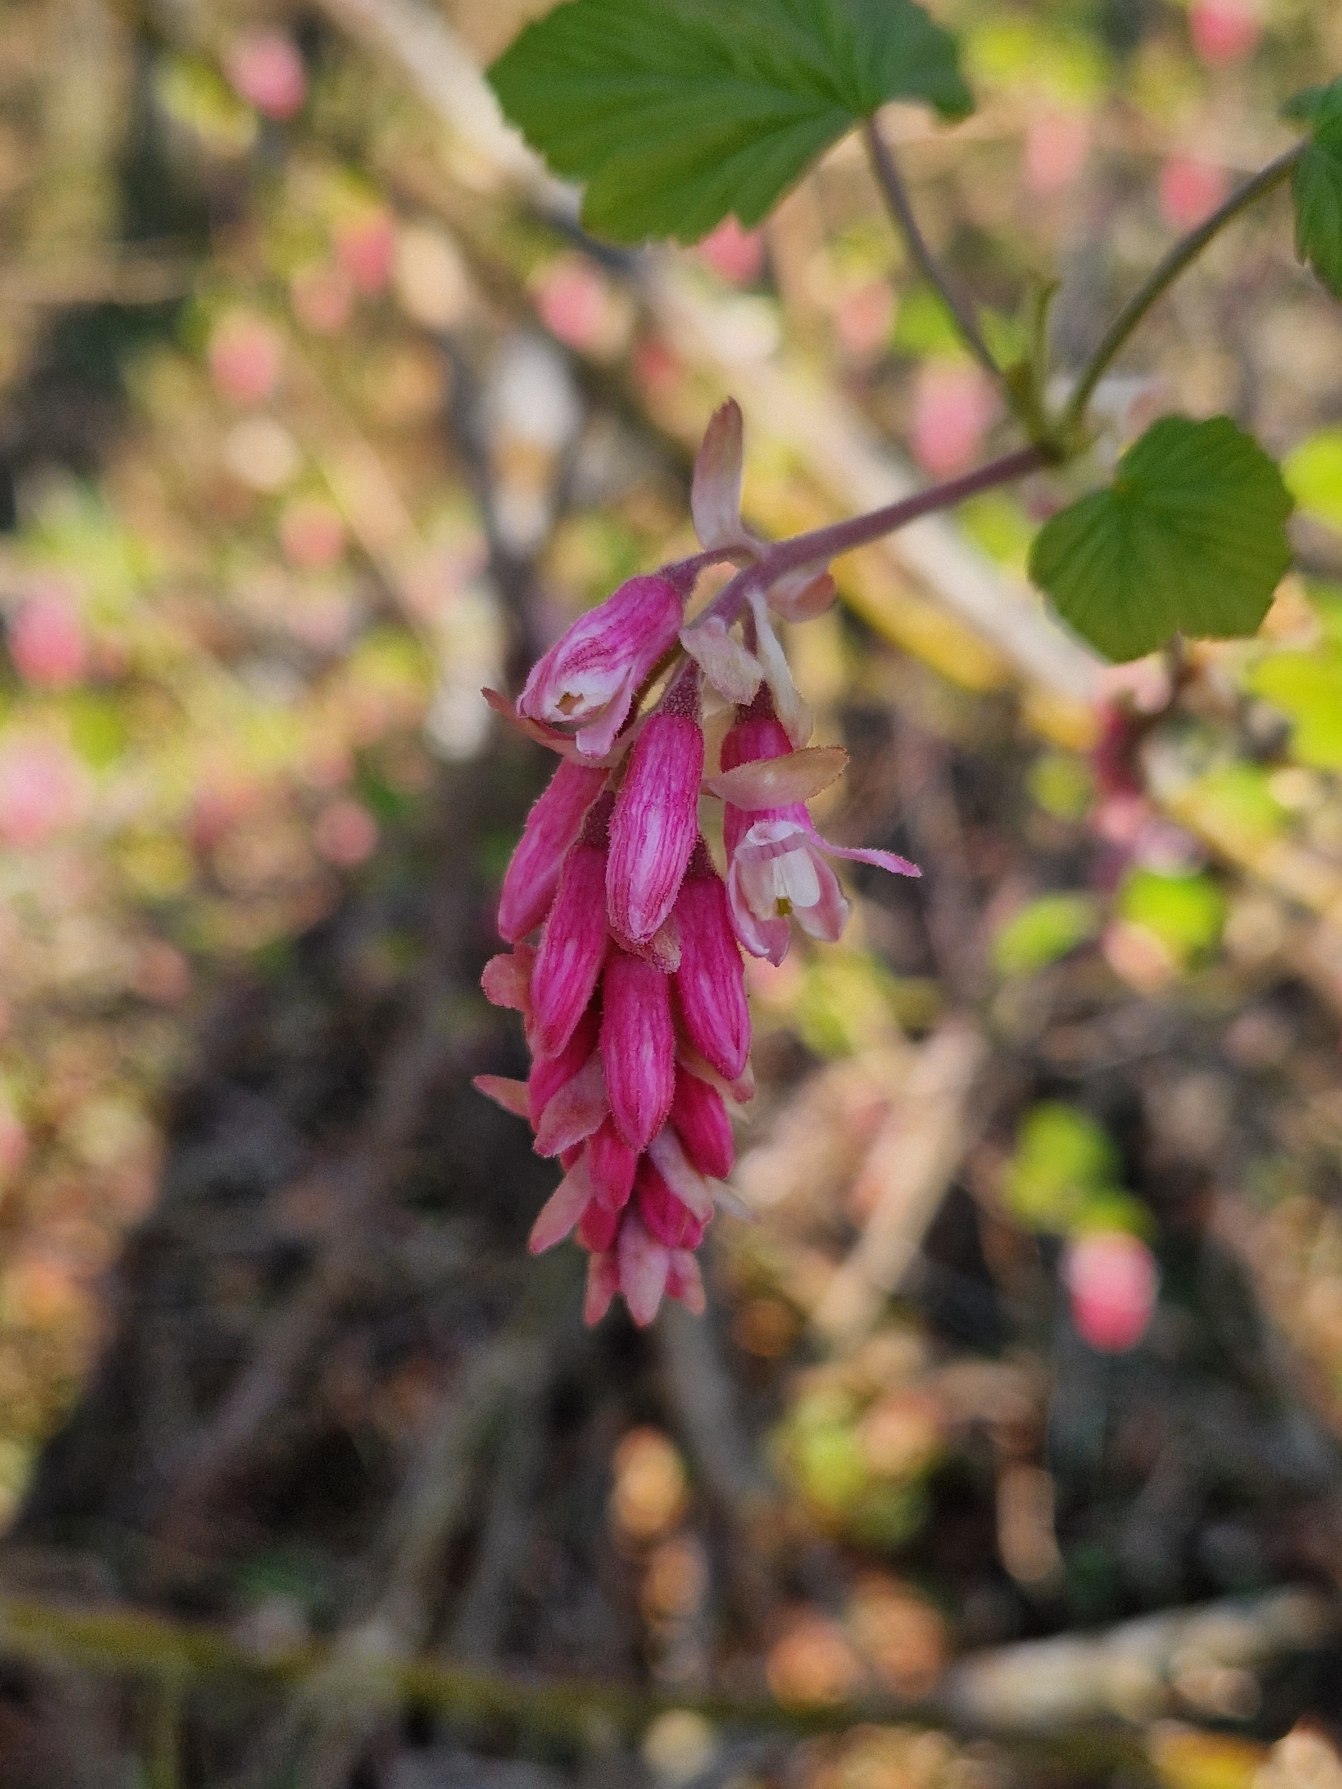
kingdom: Plantae
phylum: Tracheophyta
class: Magnoliopsida
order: Saxifragales
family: Grossulariaceae
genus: Ribes
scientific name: Ribes sanguineum
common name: Blod-ribs
